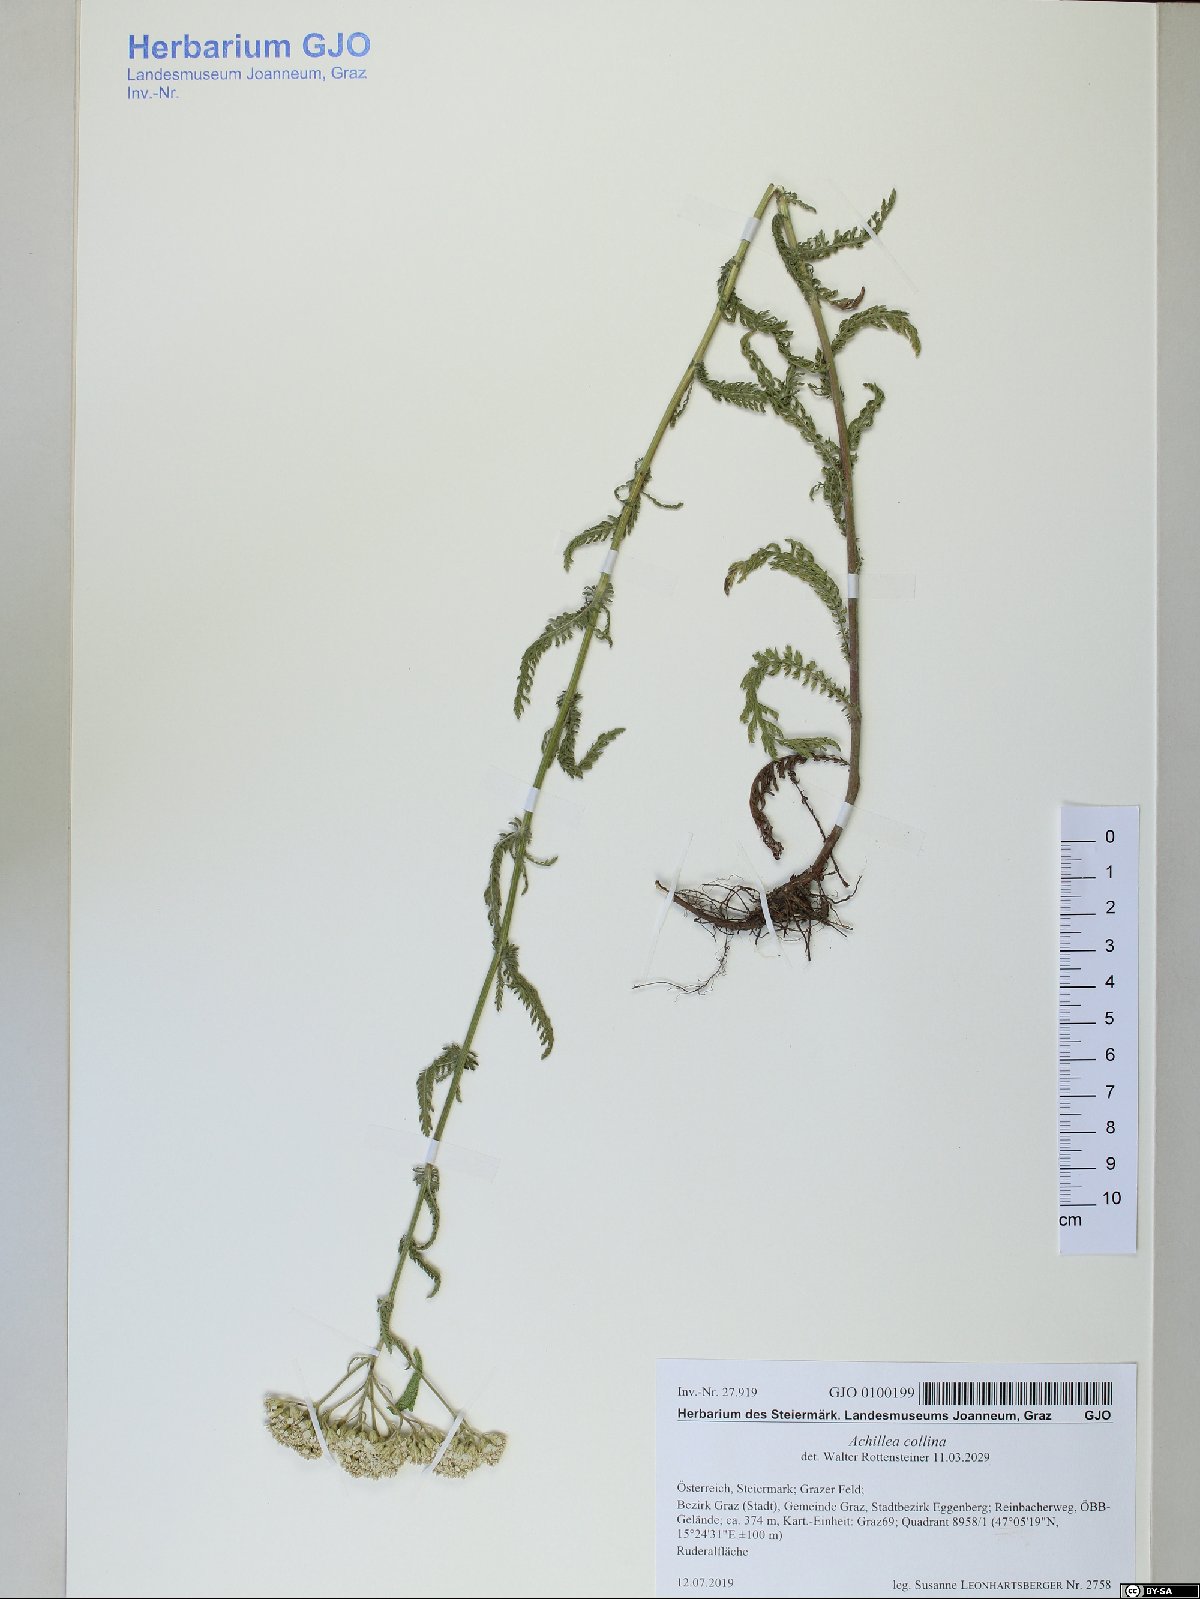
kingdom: Plantae
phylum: Tracheophyta
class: Magnoliopsida
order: Asterales
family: Asteraceae
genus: Achillea
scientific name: Achillea collina
